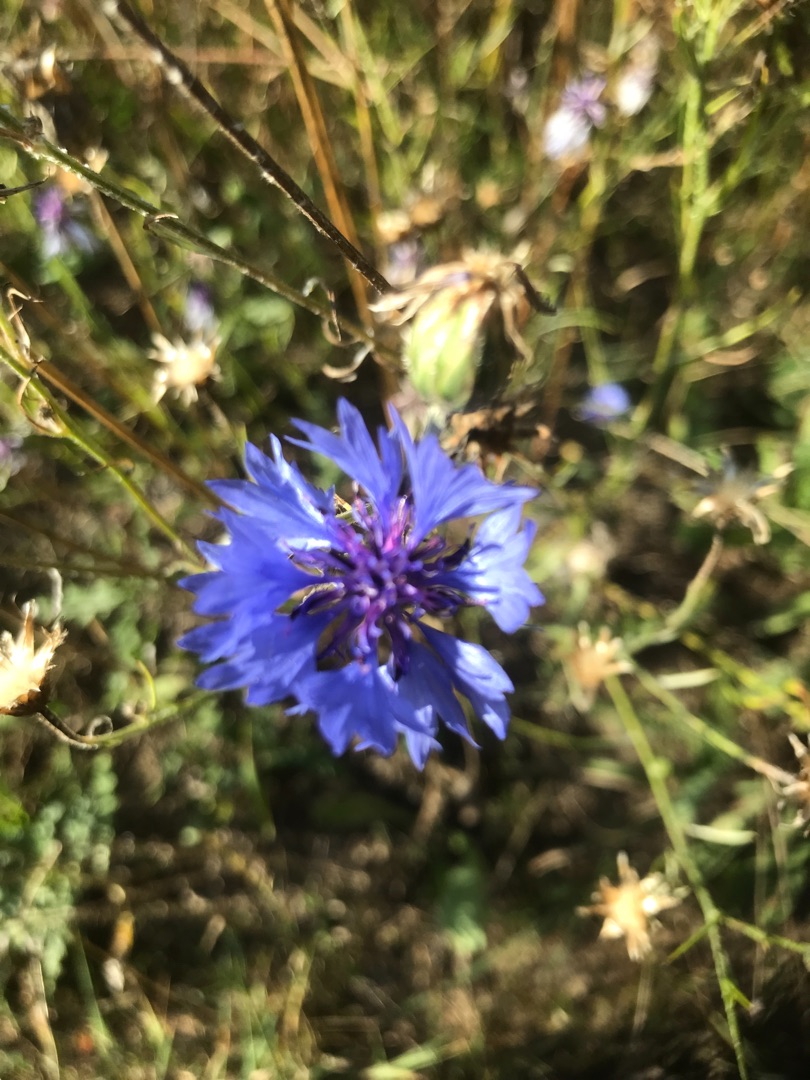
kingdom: Plantae
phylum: Tracheophyta
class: Magnoliopsida
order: Asterales
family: Asteraceae
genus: Centaurea
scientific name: Centaurea cyanus
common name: Kornblomst
